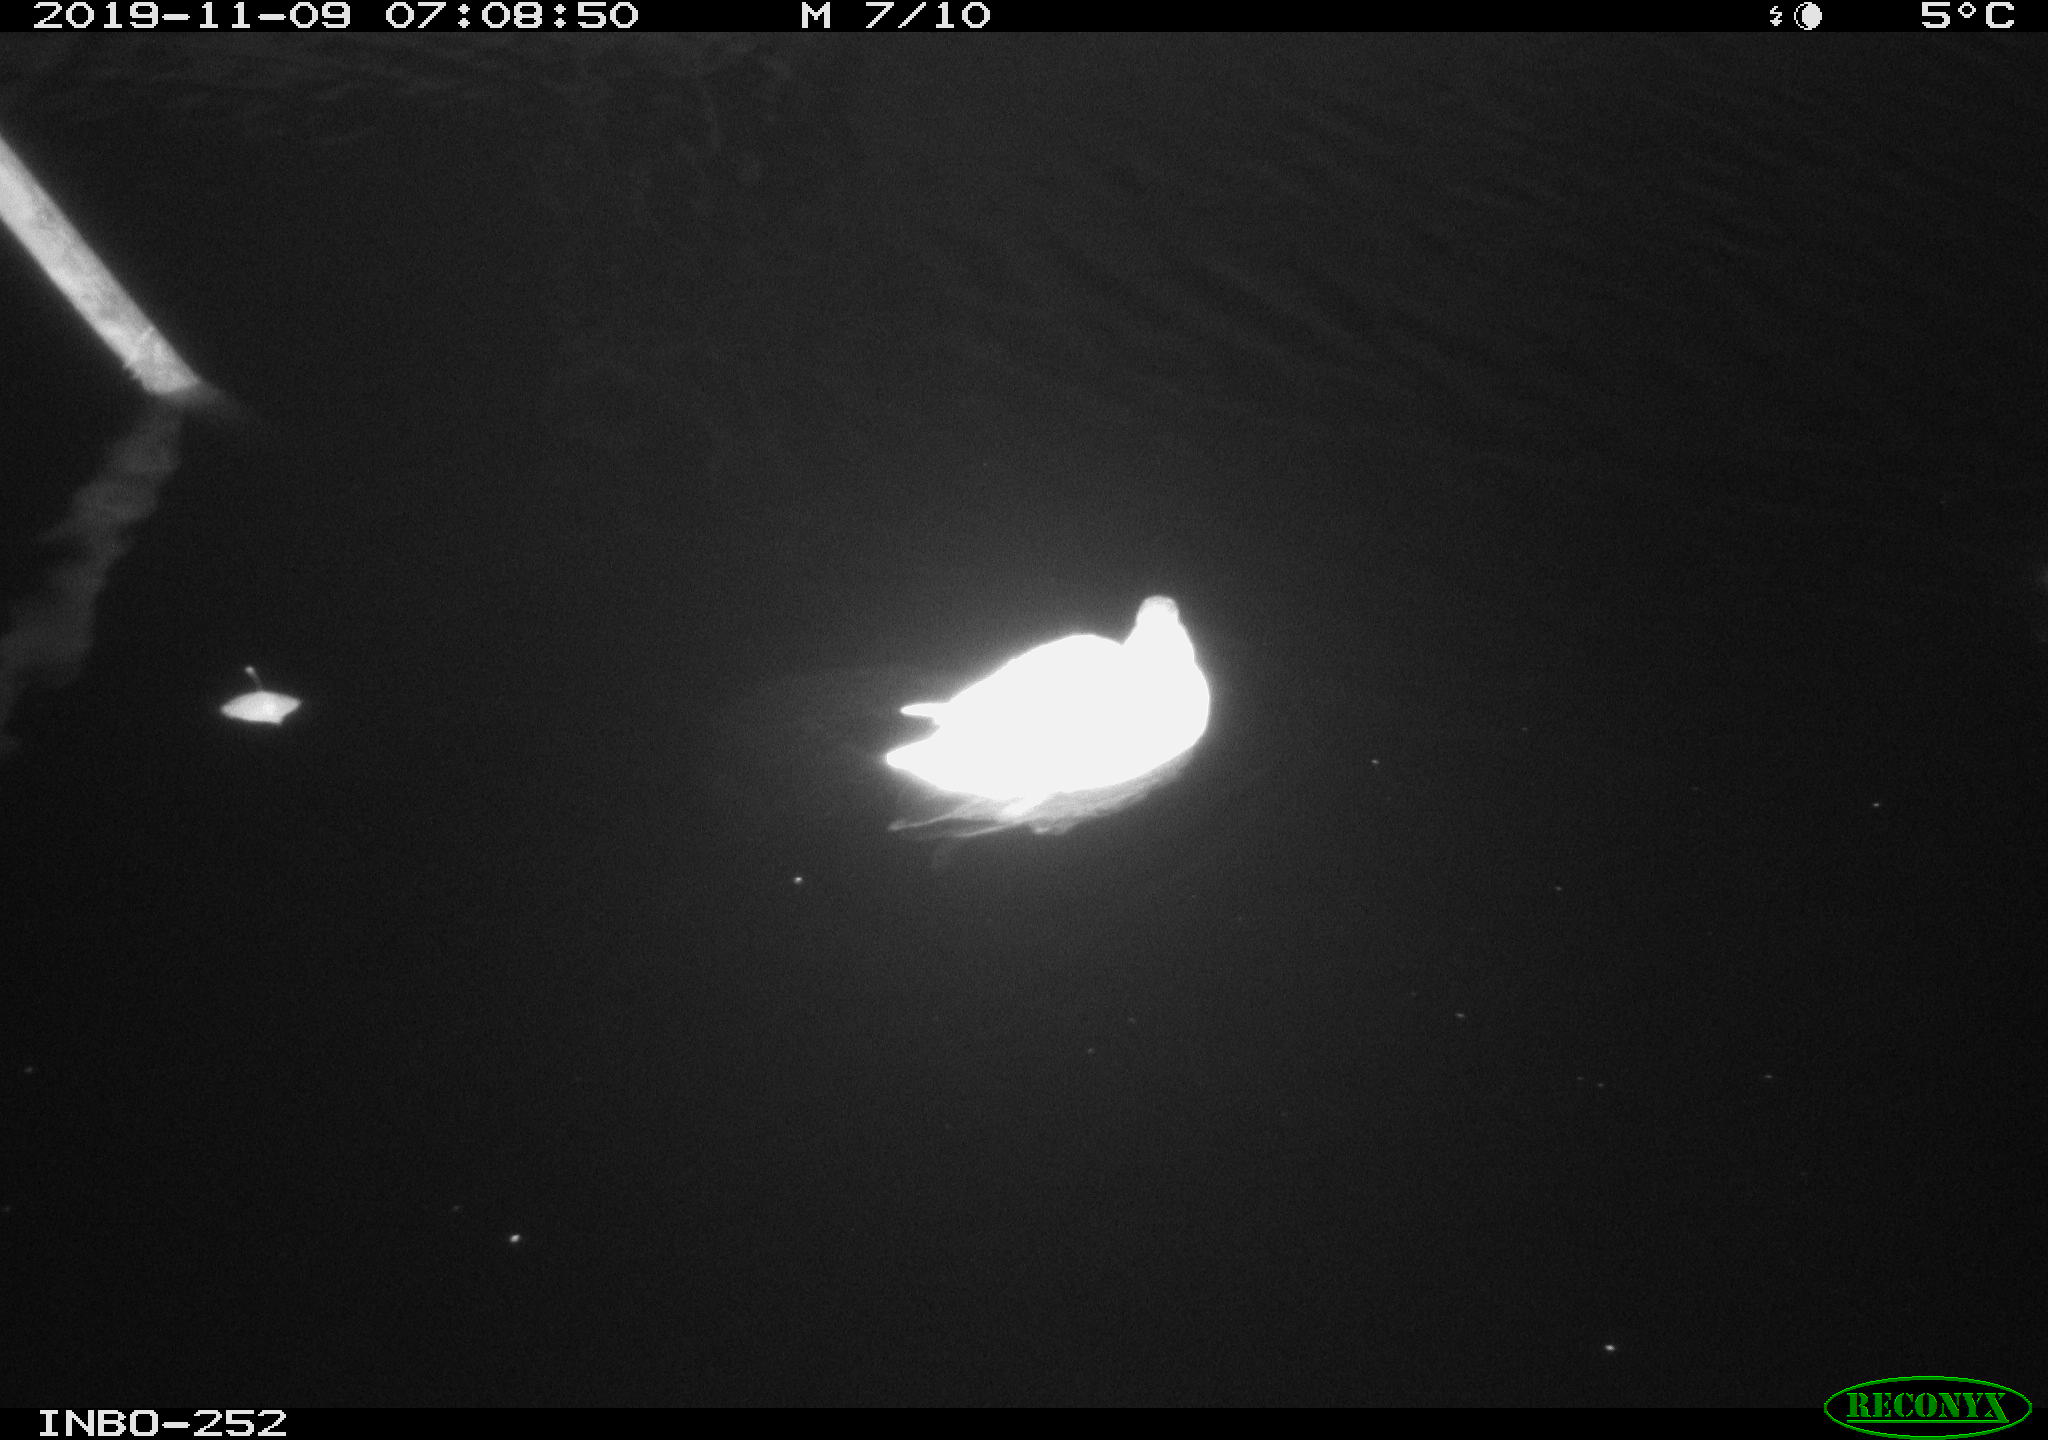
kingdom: Animalia
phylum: Chordata
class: Aves
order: Anseriformes
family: Anatidae
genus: Anas
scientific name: Anas platyrhynchos
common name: Mallard
